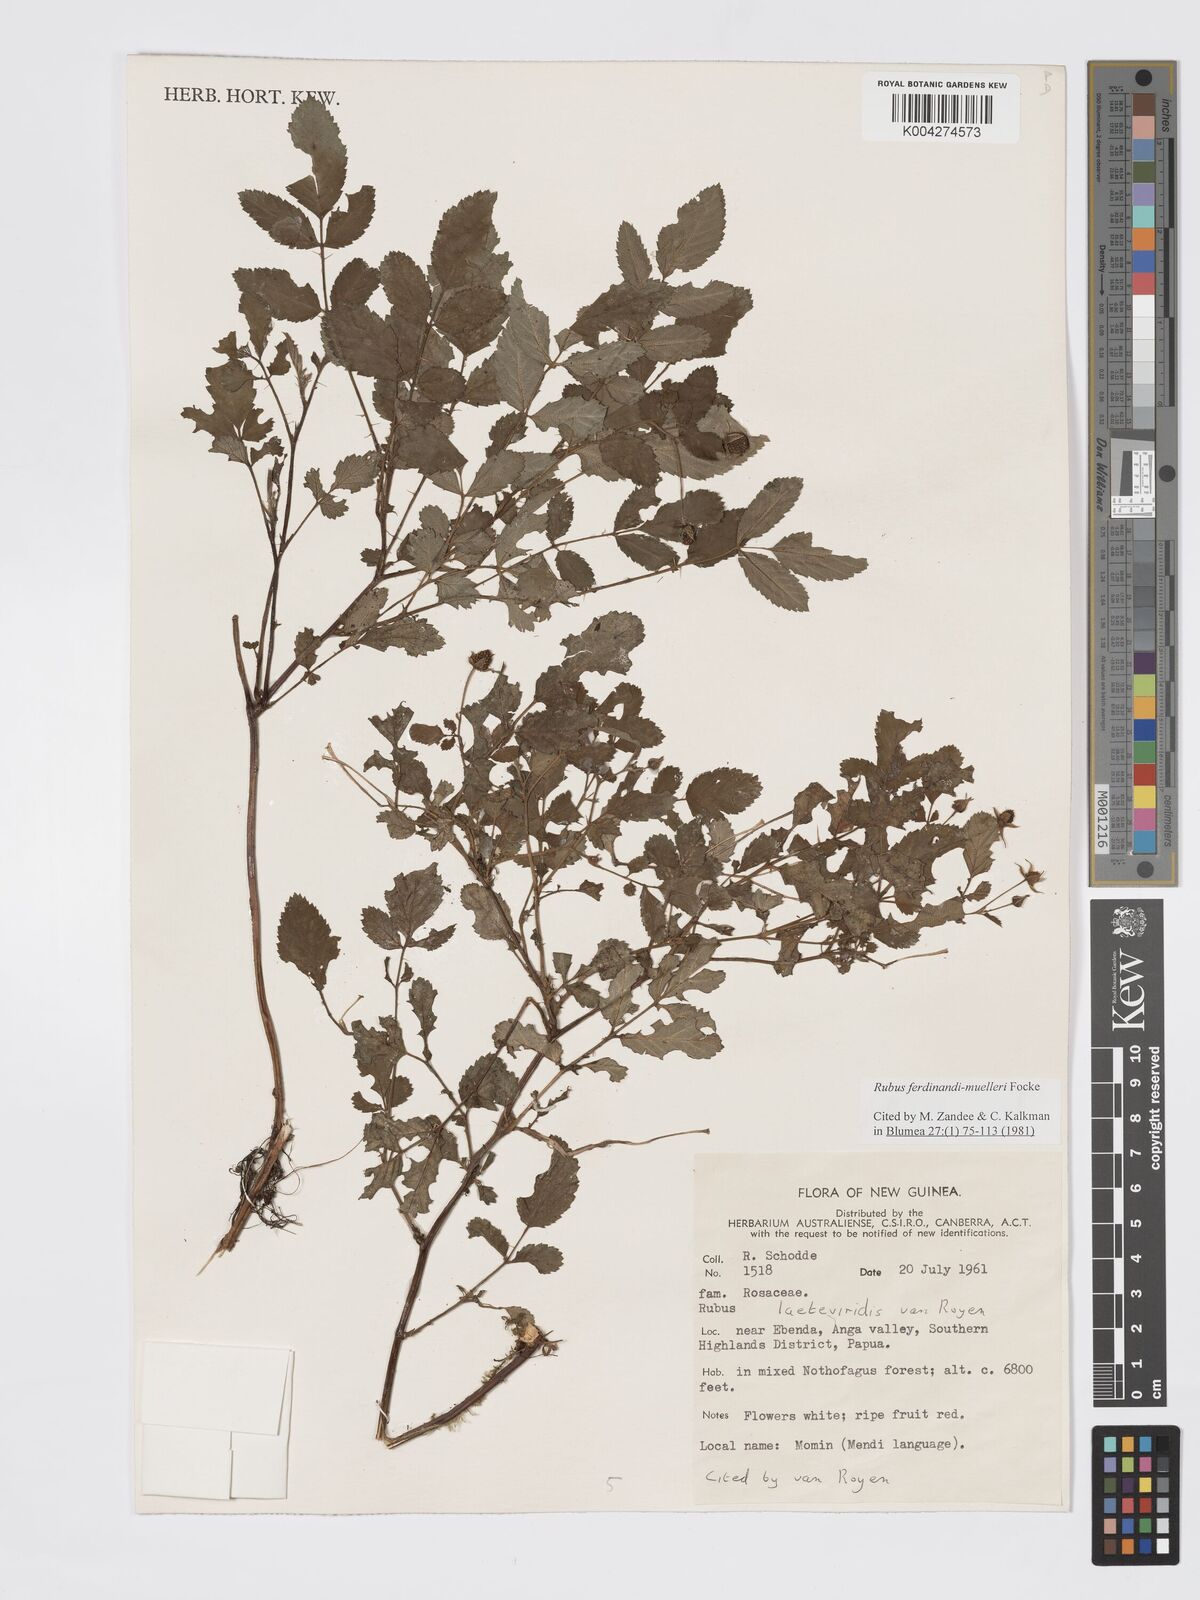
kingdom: Plantae
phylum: Tracheophyta
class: Magnoliopsida
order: Rosales
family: Rosaceae
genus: Rubus
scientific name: Rubus ferdinandimuelleri
